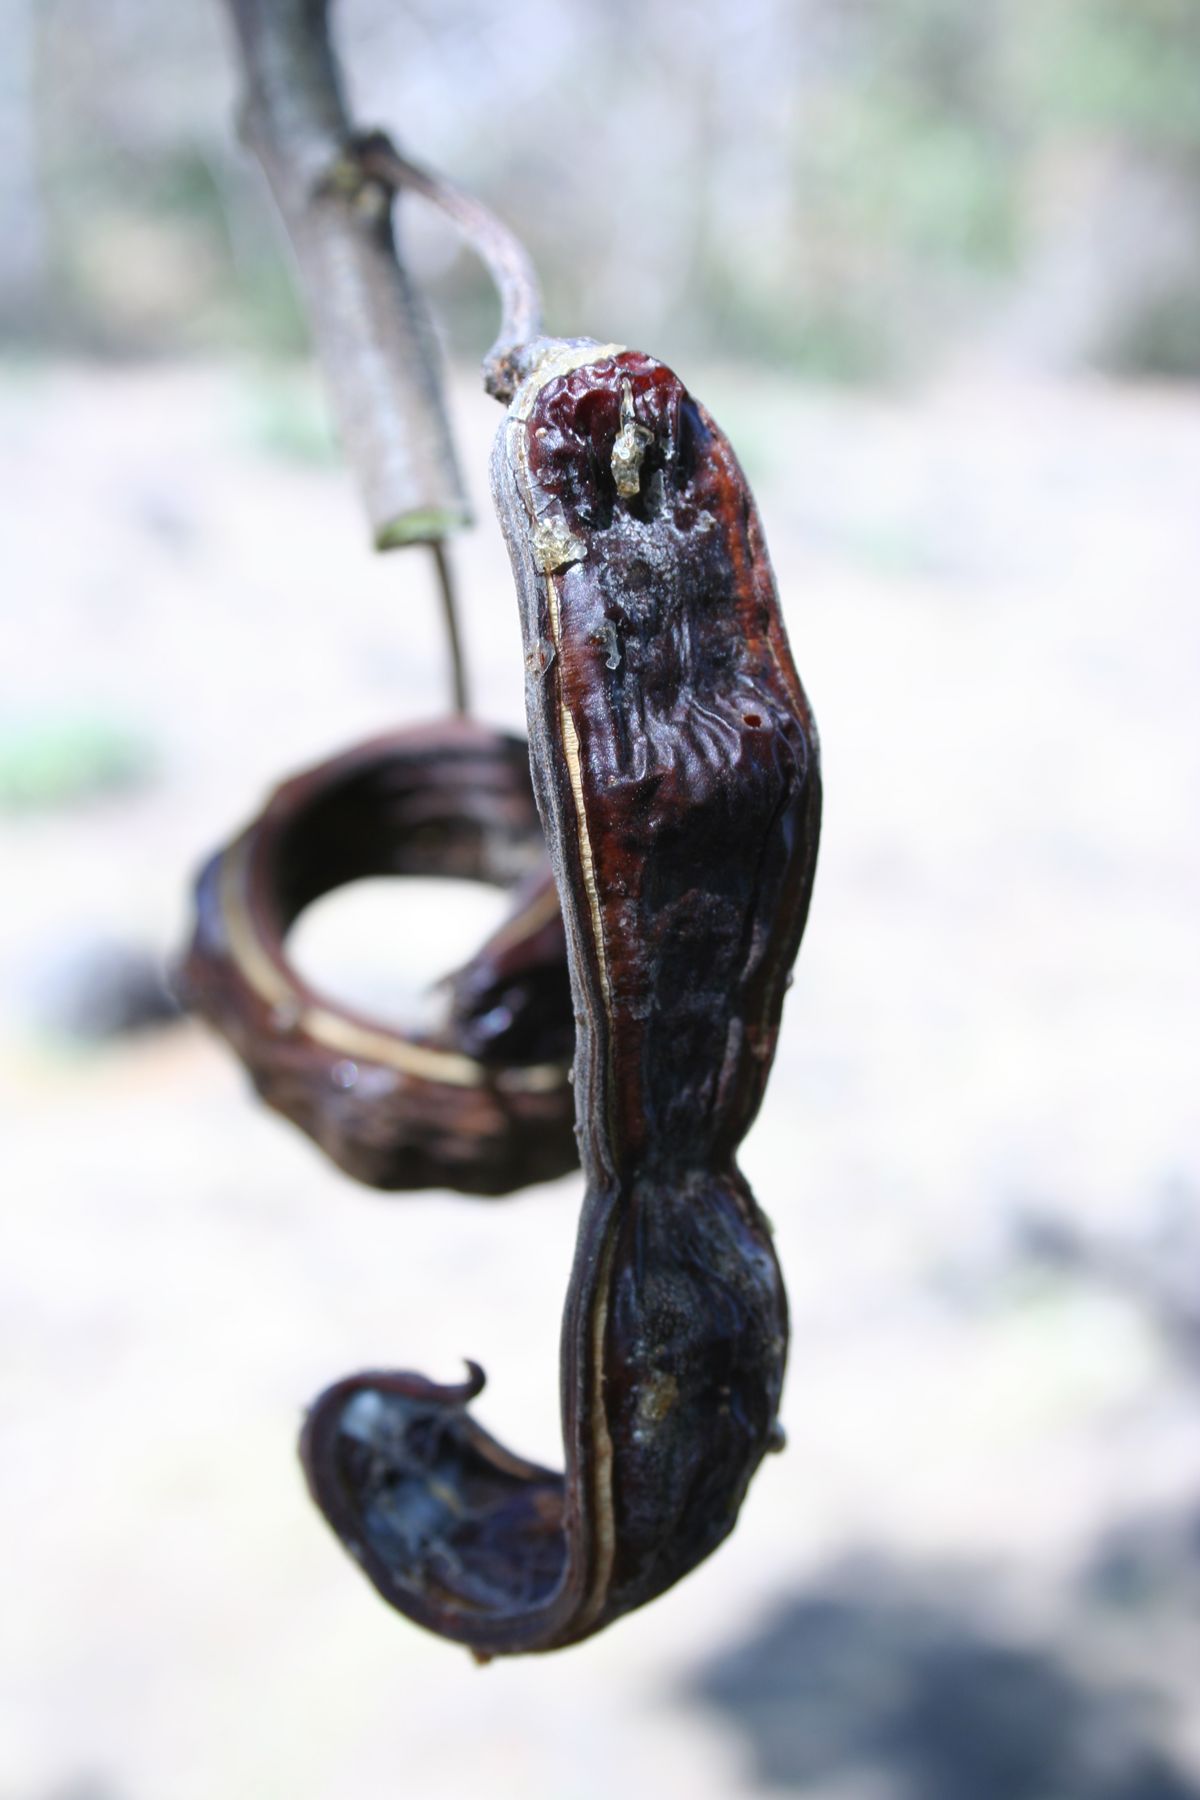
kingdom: Plantae
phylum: Tracheophyta
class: Magnoliopsida
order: Fabales
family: Fabaceae
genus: Samanea
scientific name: Samanea saman
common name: Raintree
